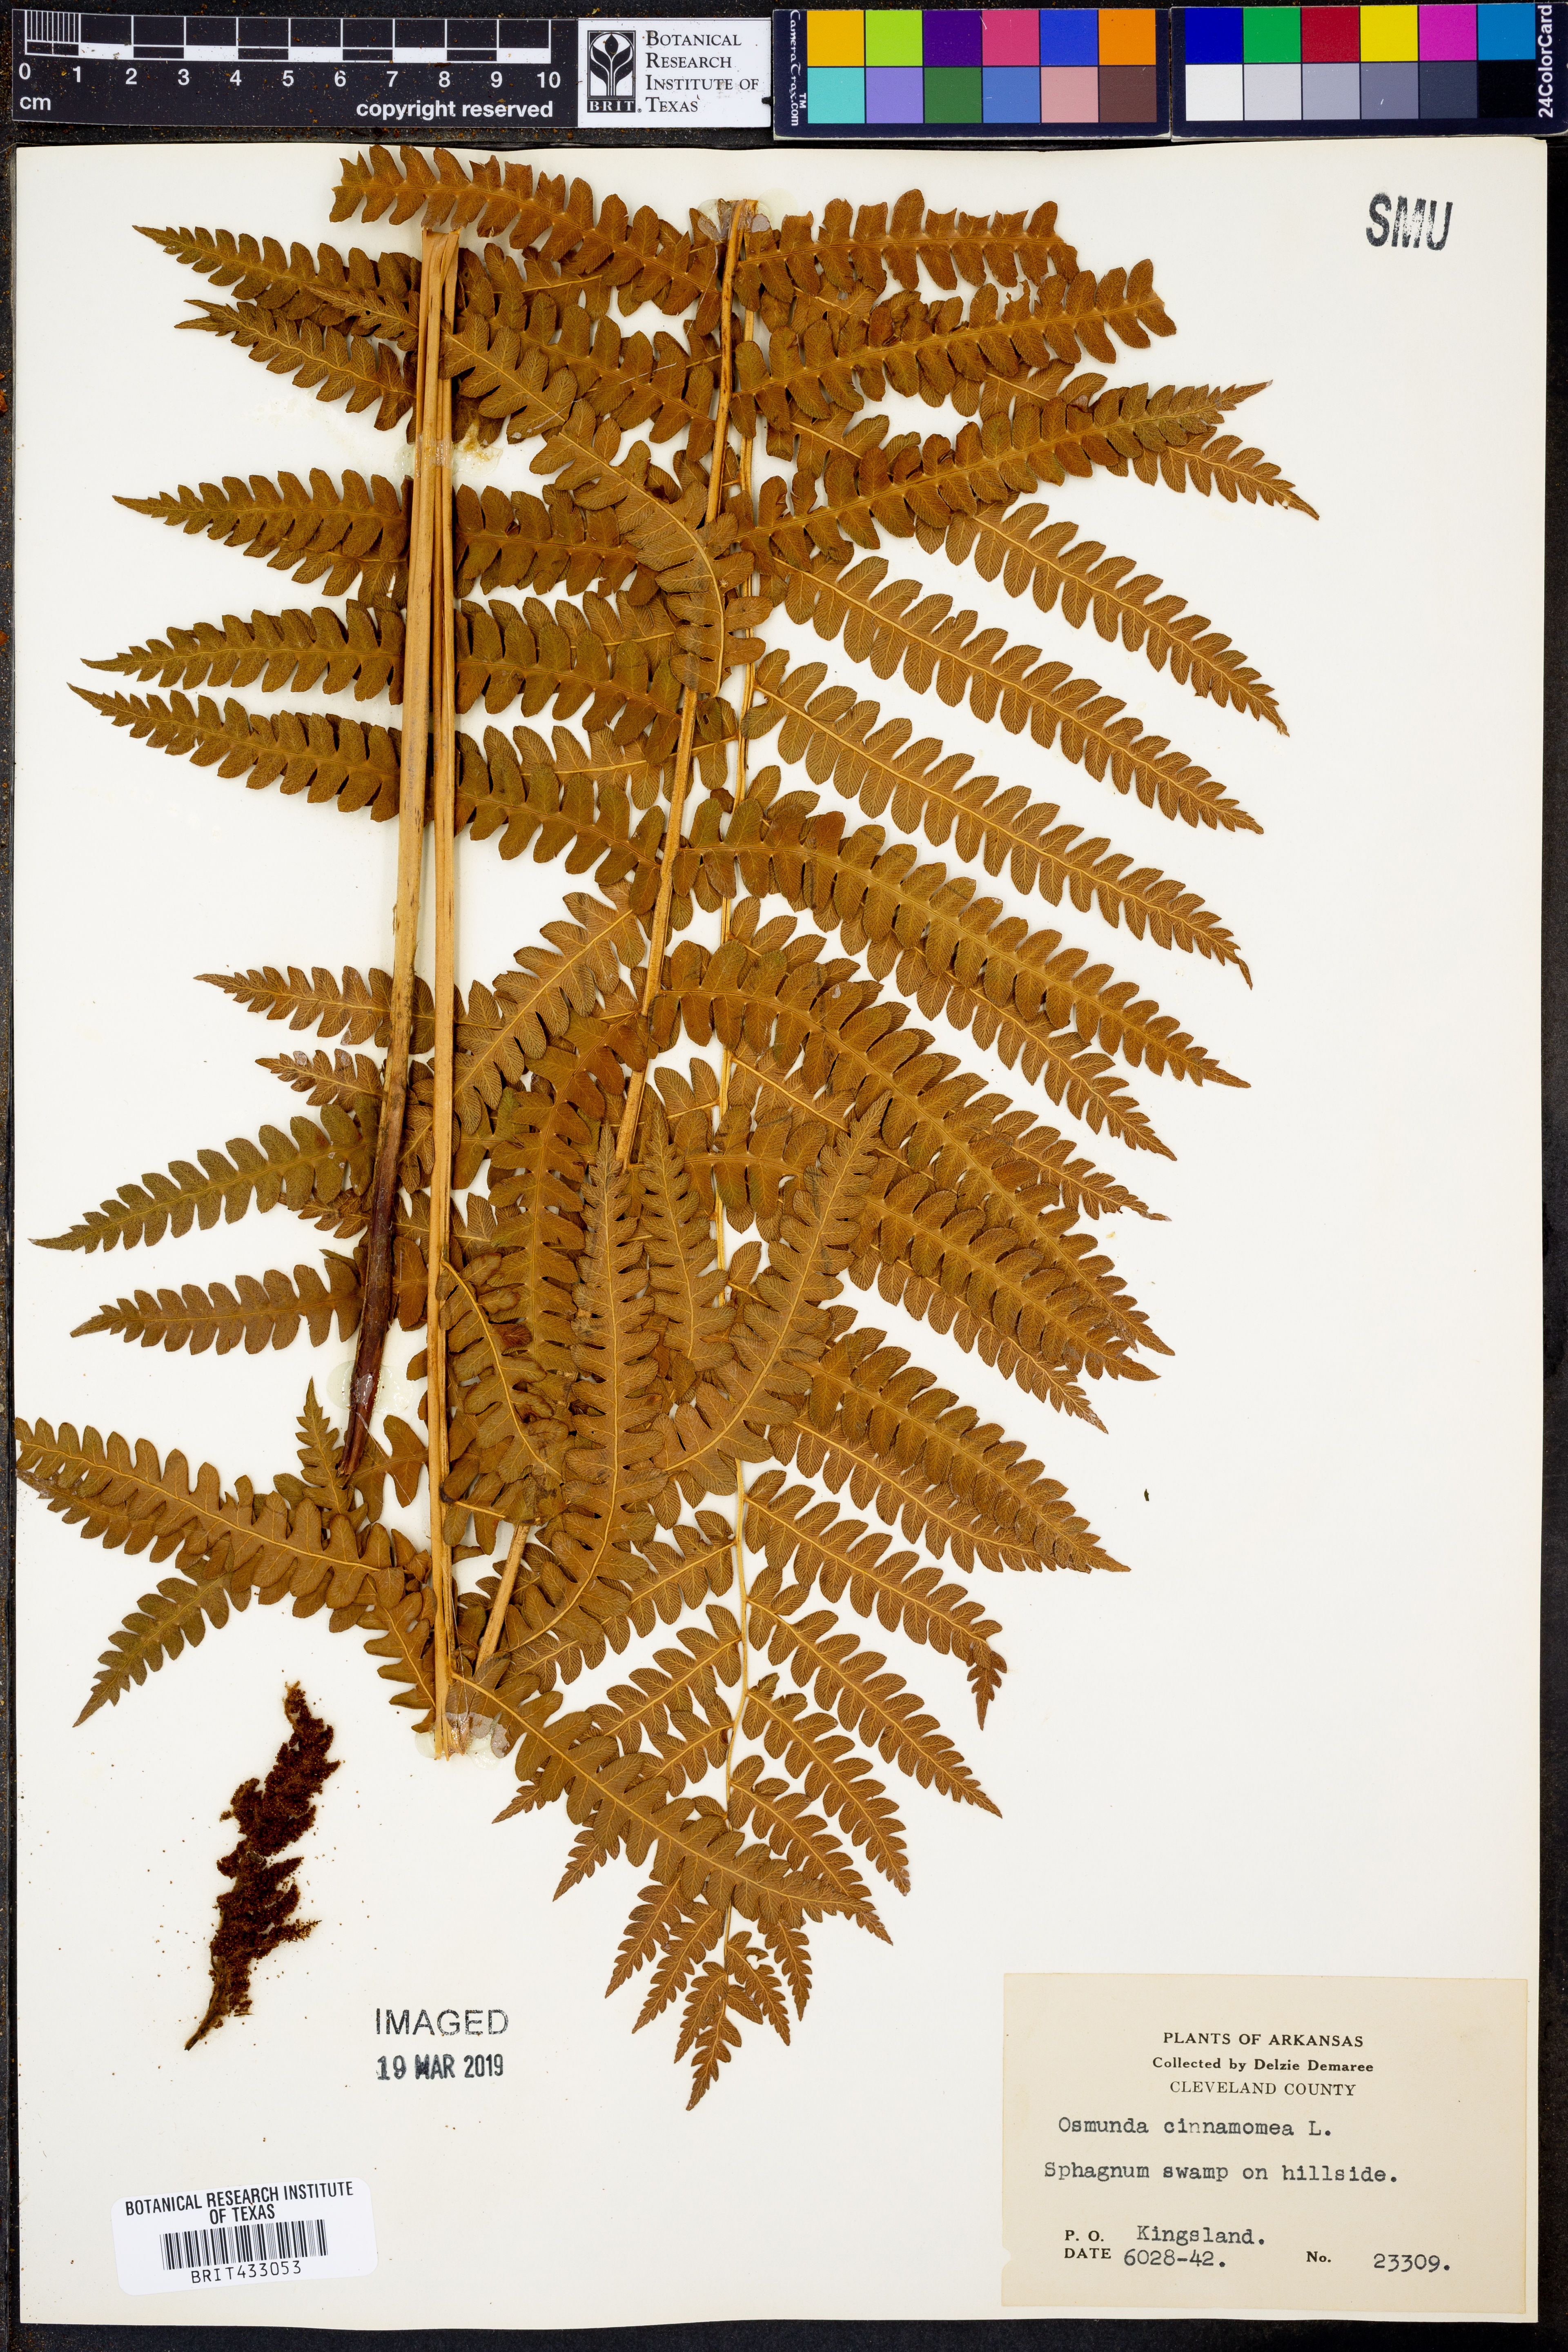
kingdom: Plantae
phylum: Tracheophyta
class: Polypodiopsida
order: Osmundales
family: Osmundaceae
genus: Osmundastrum
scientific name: Osmundastrum cinnamomeum
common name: Cinnamon fern
